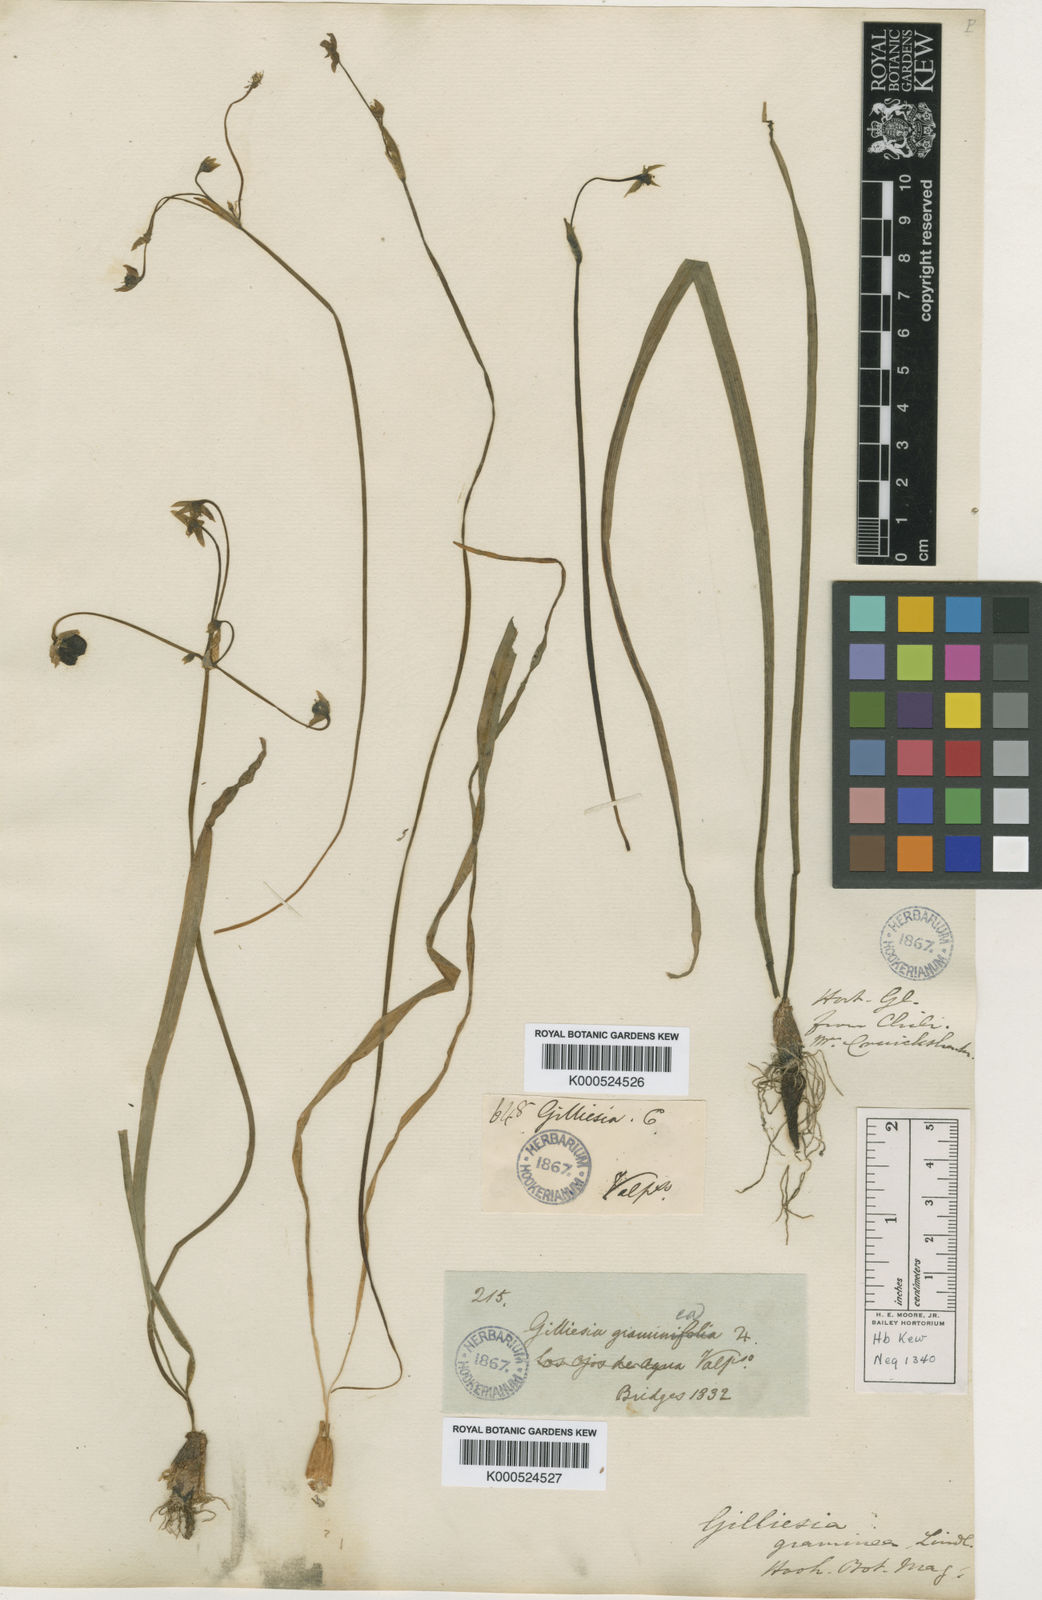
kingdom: Plantae
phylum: Tracheophyta
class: Liliopsida
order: Asparagales
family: Amaryllidaceae
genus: Gilliesia
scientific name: Gilliesia graminea
